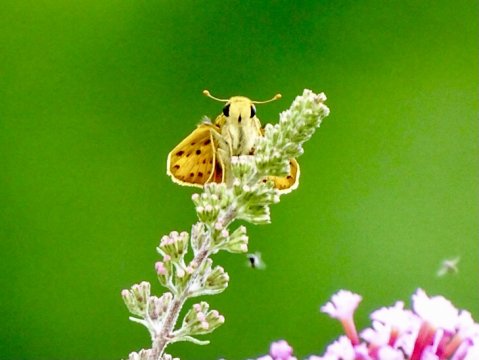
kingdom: Animalia
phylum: Arthropoda
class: Insecta
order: Lepidoptera
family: Hesperiidae
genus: Hylephila
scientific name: Hylephila phyleus
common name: Fiery Skipper
